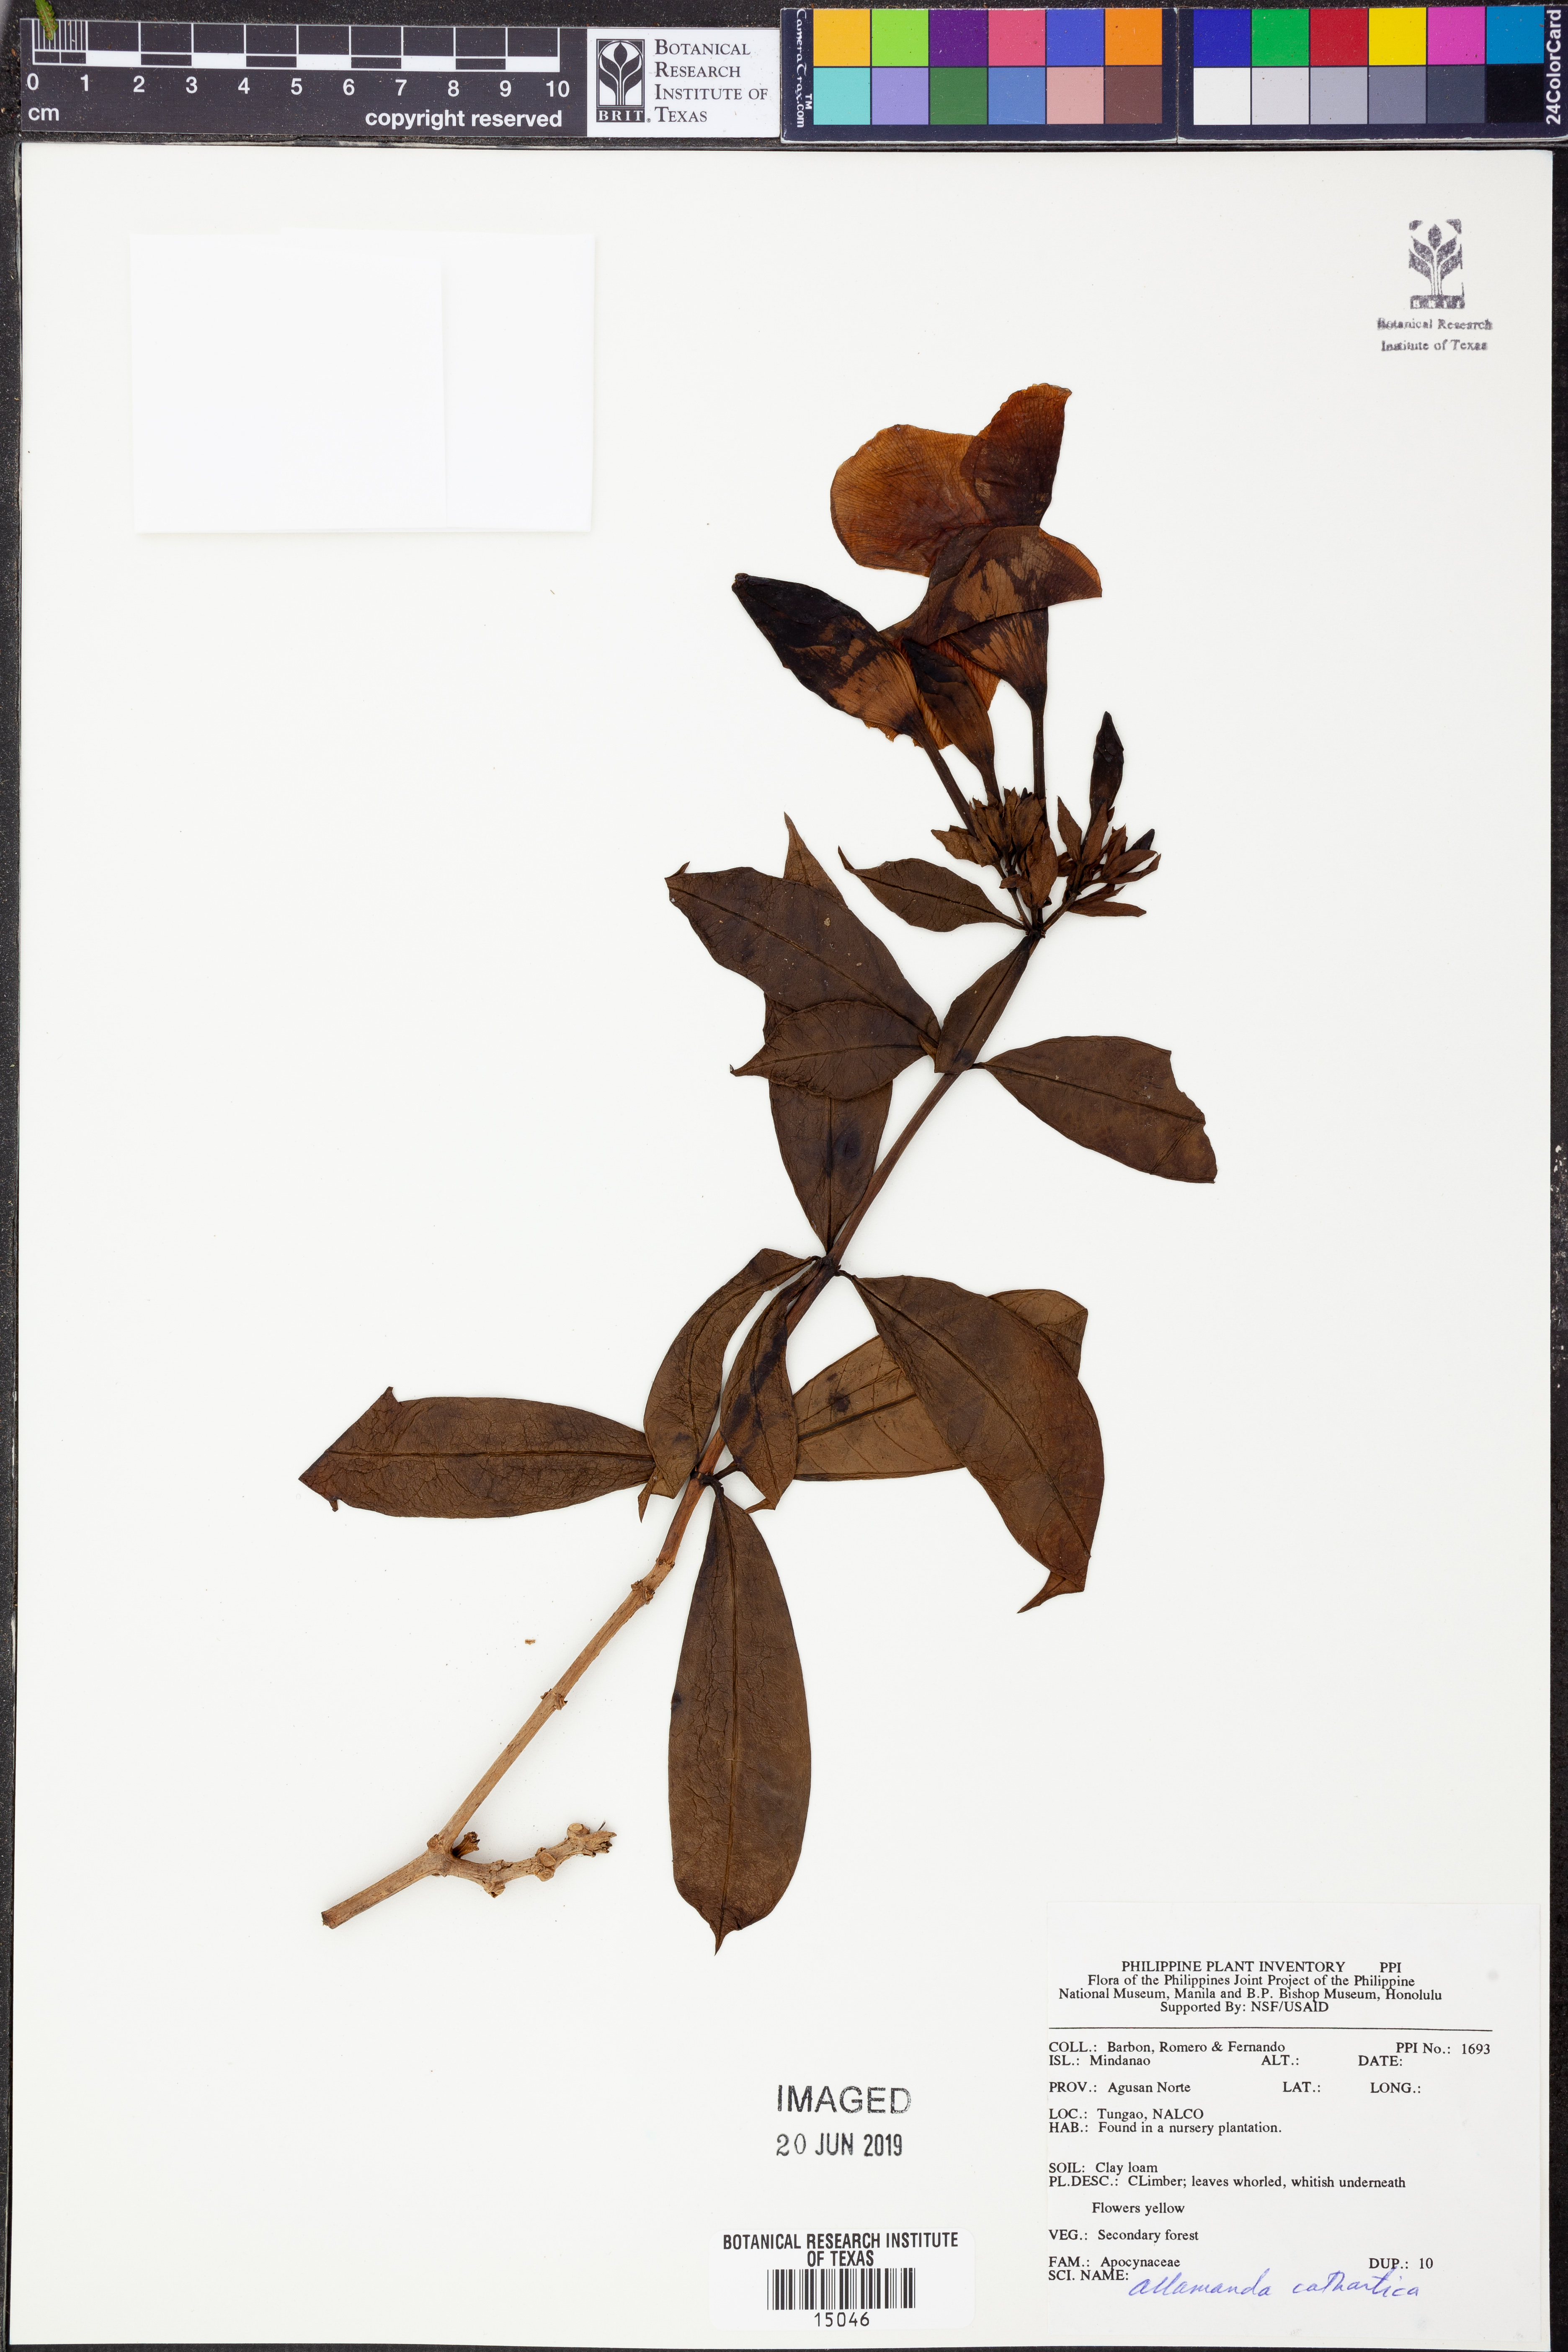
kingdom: Plantae
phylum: Tracheophyta
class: Magnoliopsida
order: Gentianales
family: Apocynaceae
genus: Allamanda
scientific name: Allamanda schottii
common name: Bush allamanda
